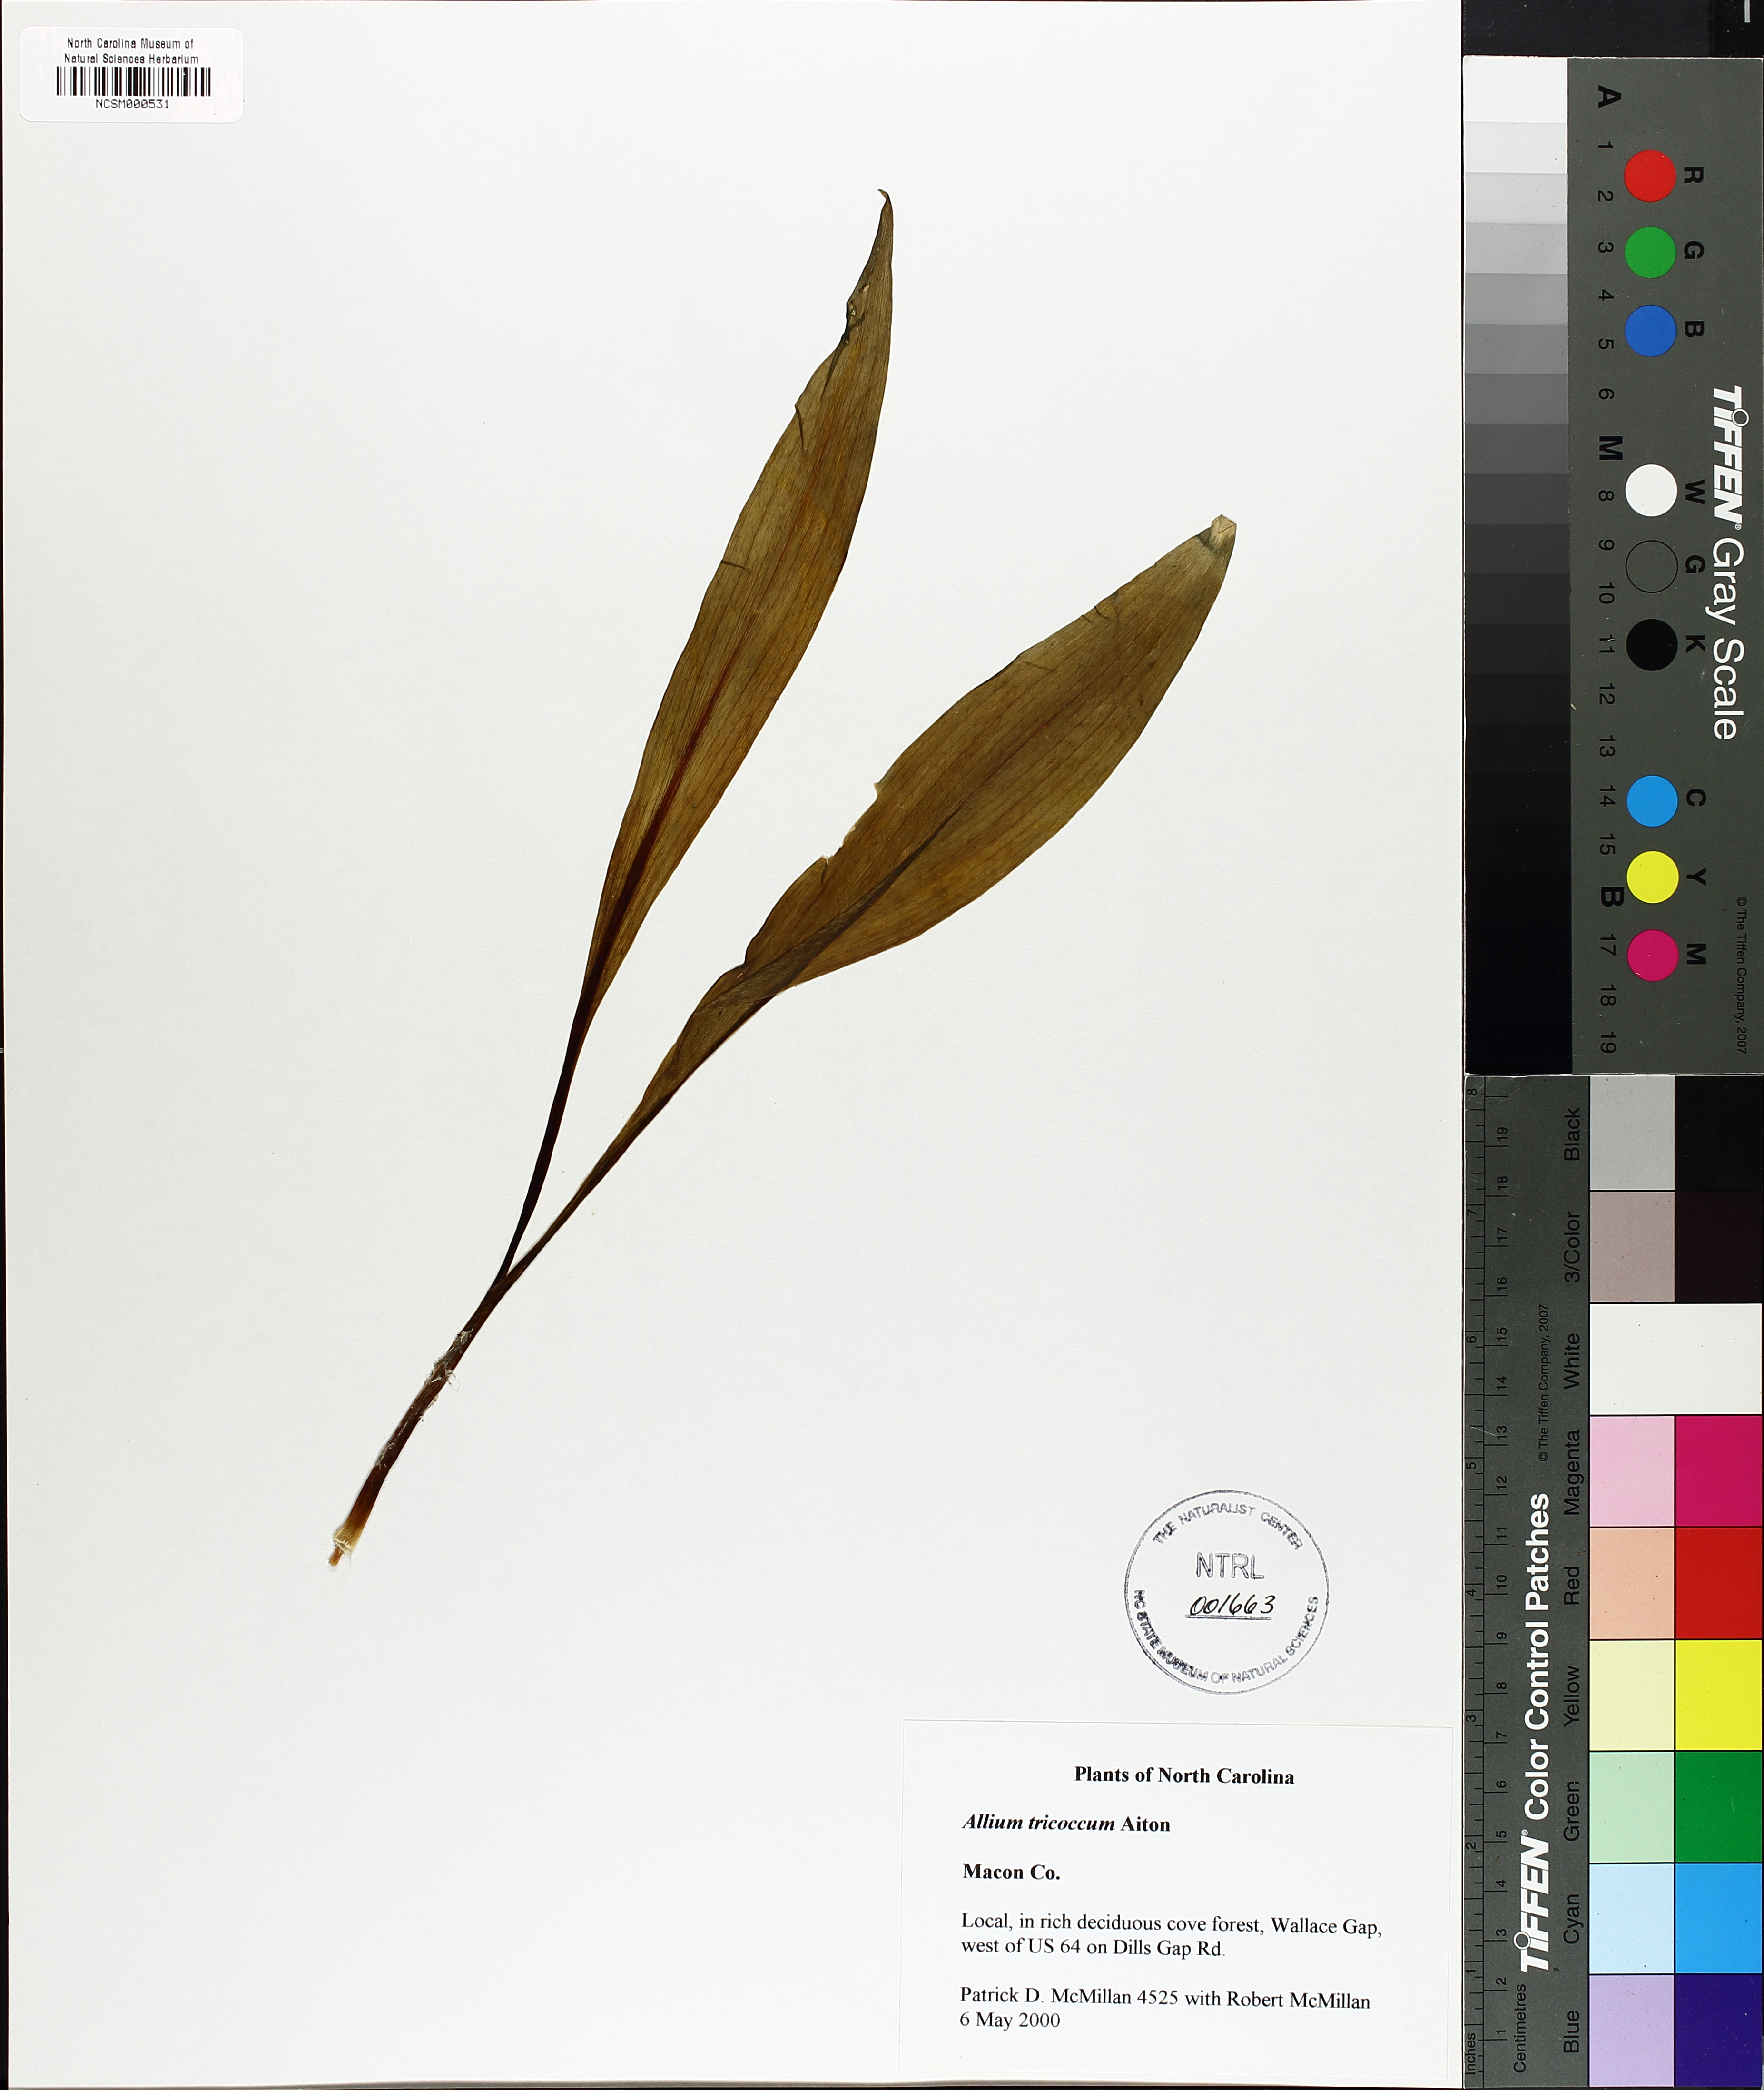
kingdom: Plantae
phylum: Tracheophyta
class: Liliopsida
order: Asparagales
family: Amaryllidaceae
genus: Allium
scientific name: Allium tricoccum
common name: Ramp
